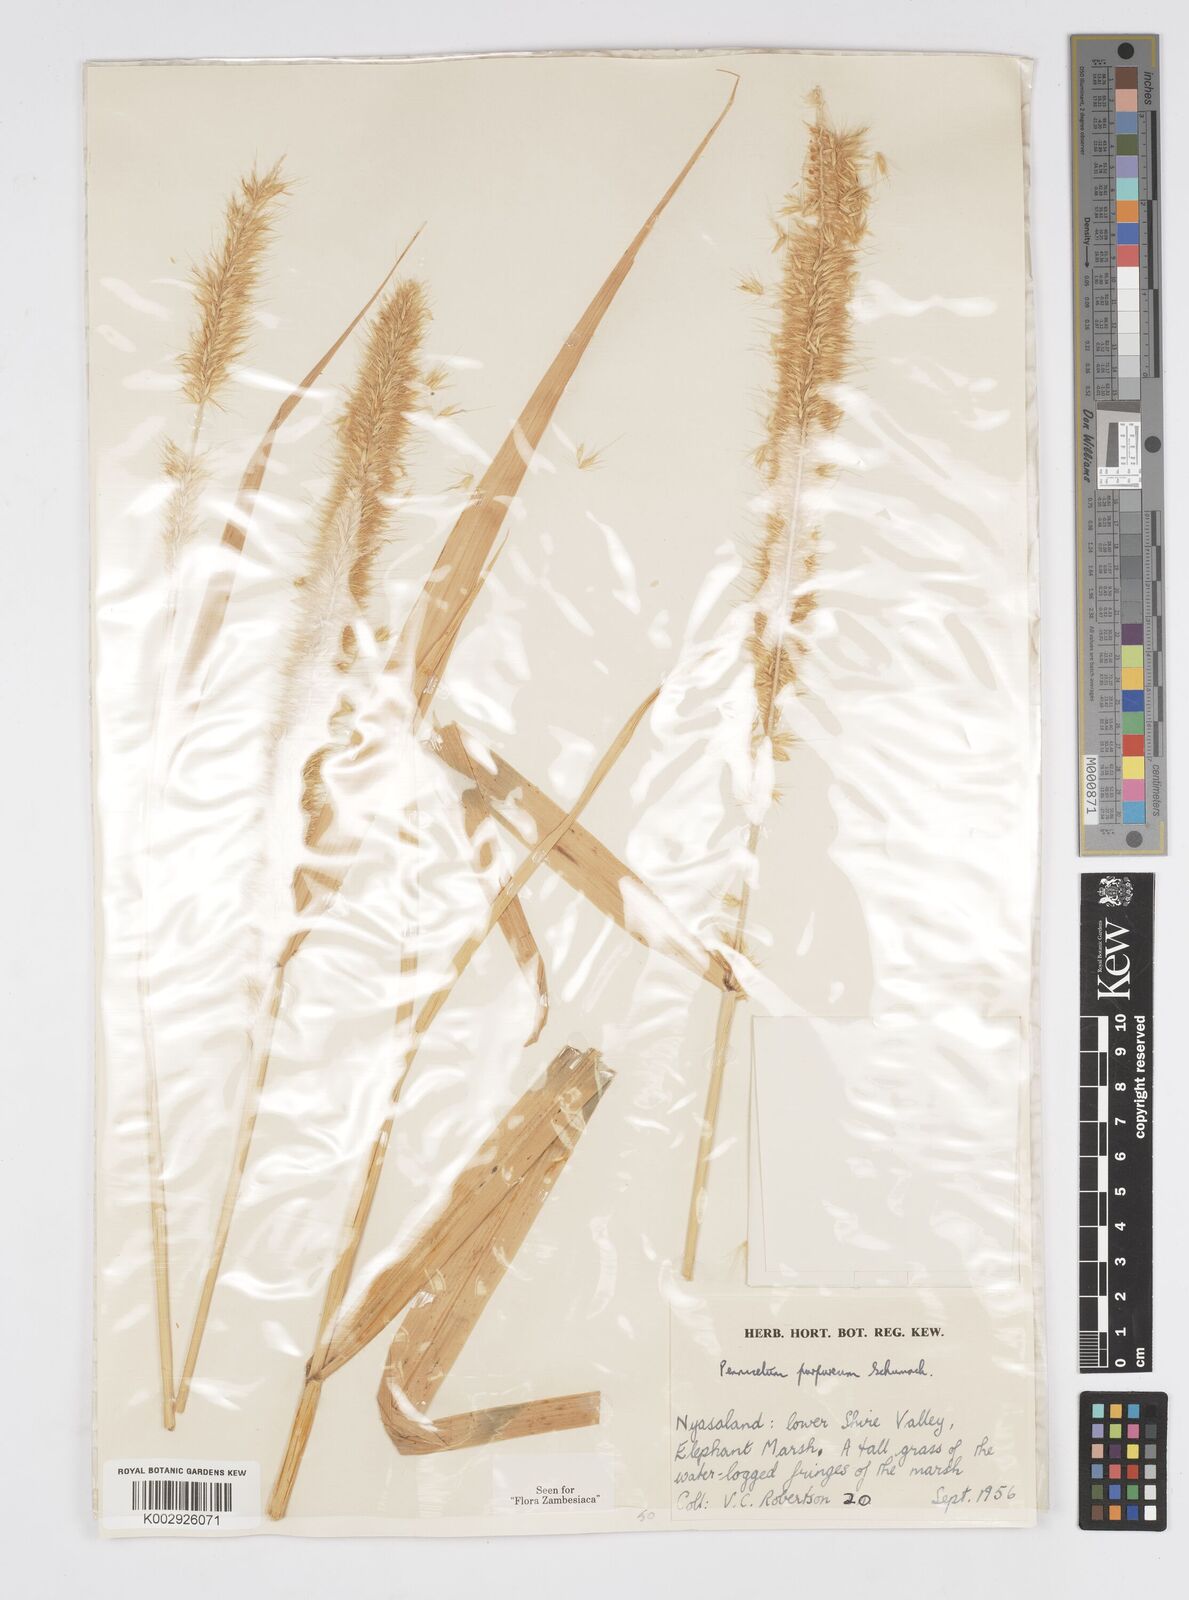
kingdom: Plantae
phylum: Tracheophyta
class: Liliopsida
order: Poales
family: Poaceae
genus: Cenchrus
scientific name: Cenchrus purpureus
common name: Elephant grass
